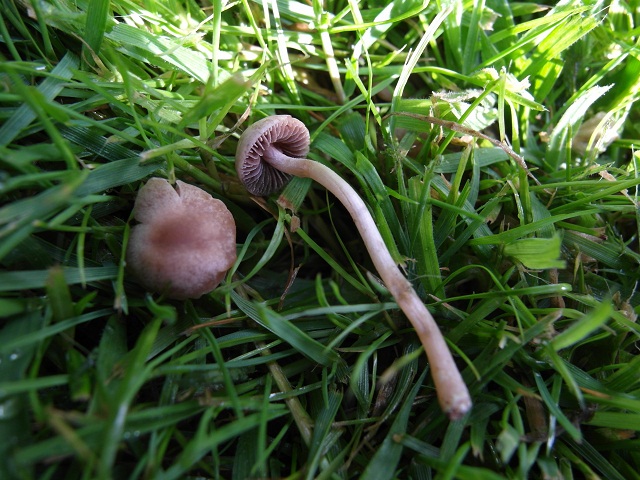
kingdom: Fungi
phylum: Basidiomycota
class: Agaricomycetes
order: Agaricales
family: Bolbitiaceae
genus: Panaeolina
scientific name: Panaeolina foenisecii
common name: høslætsvamp
